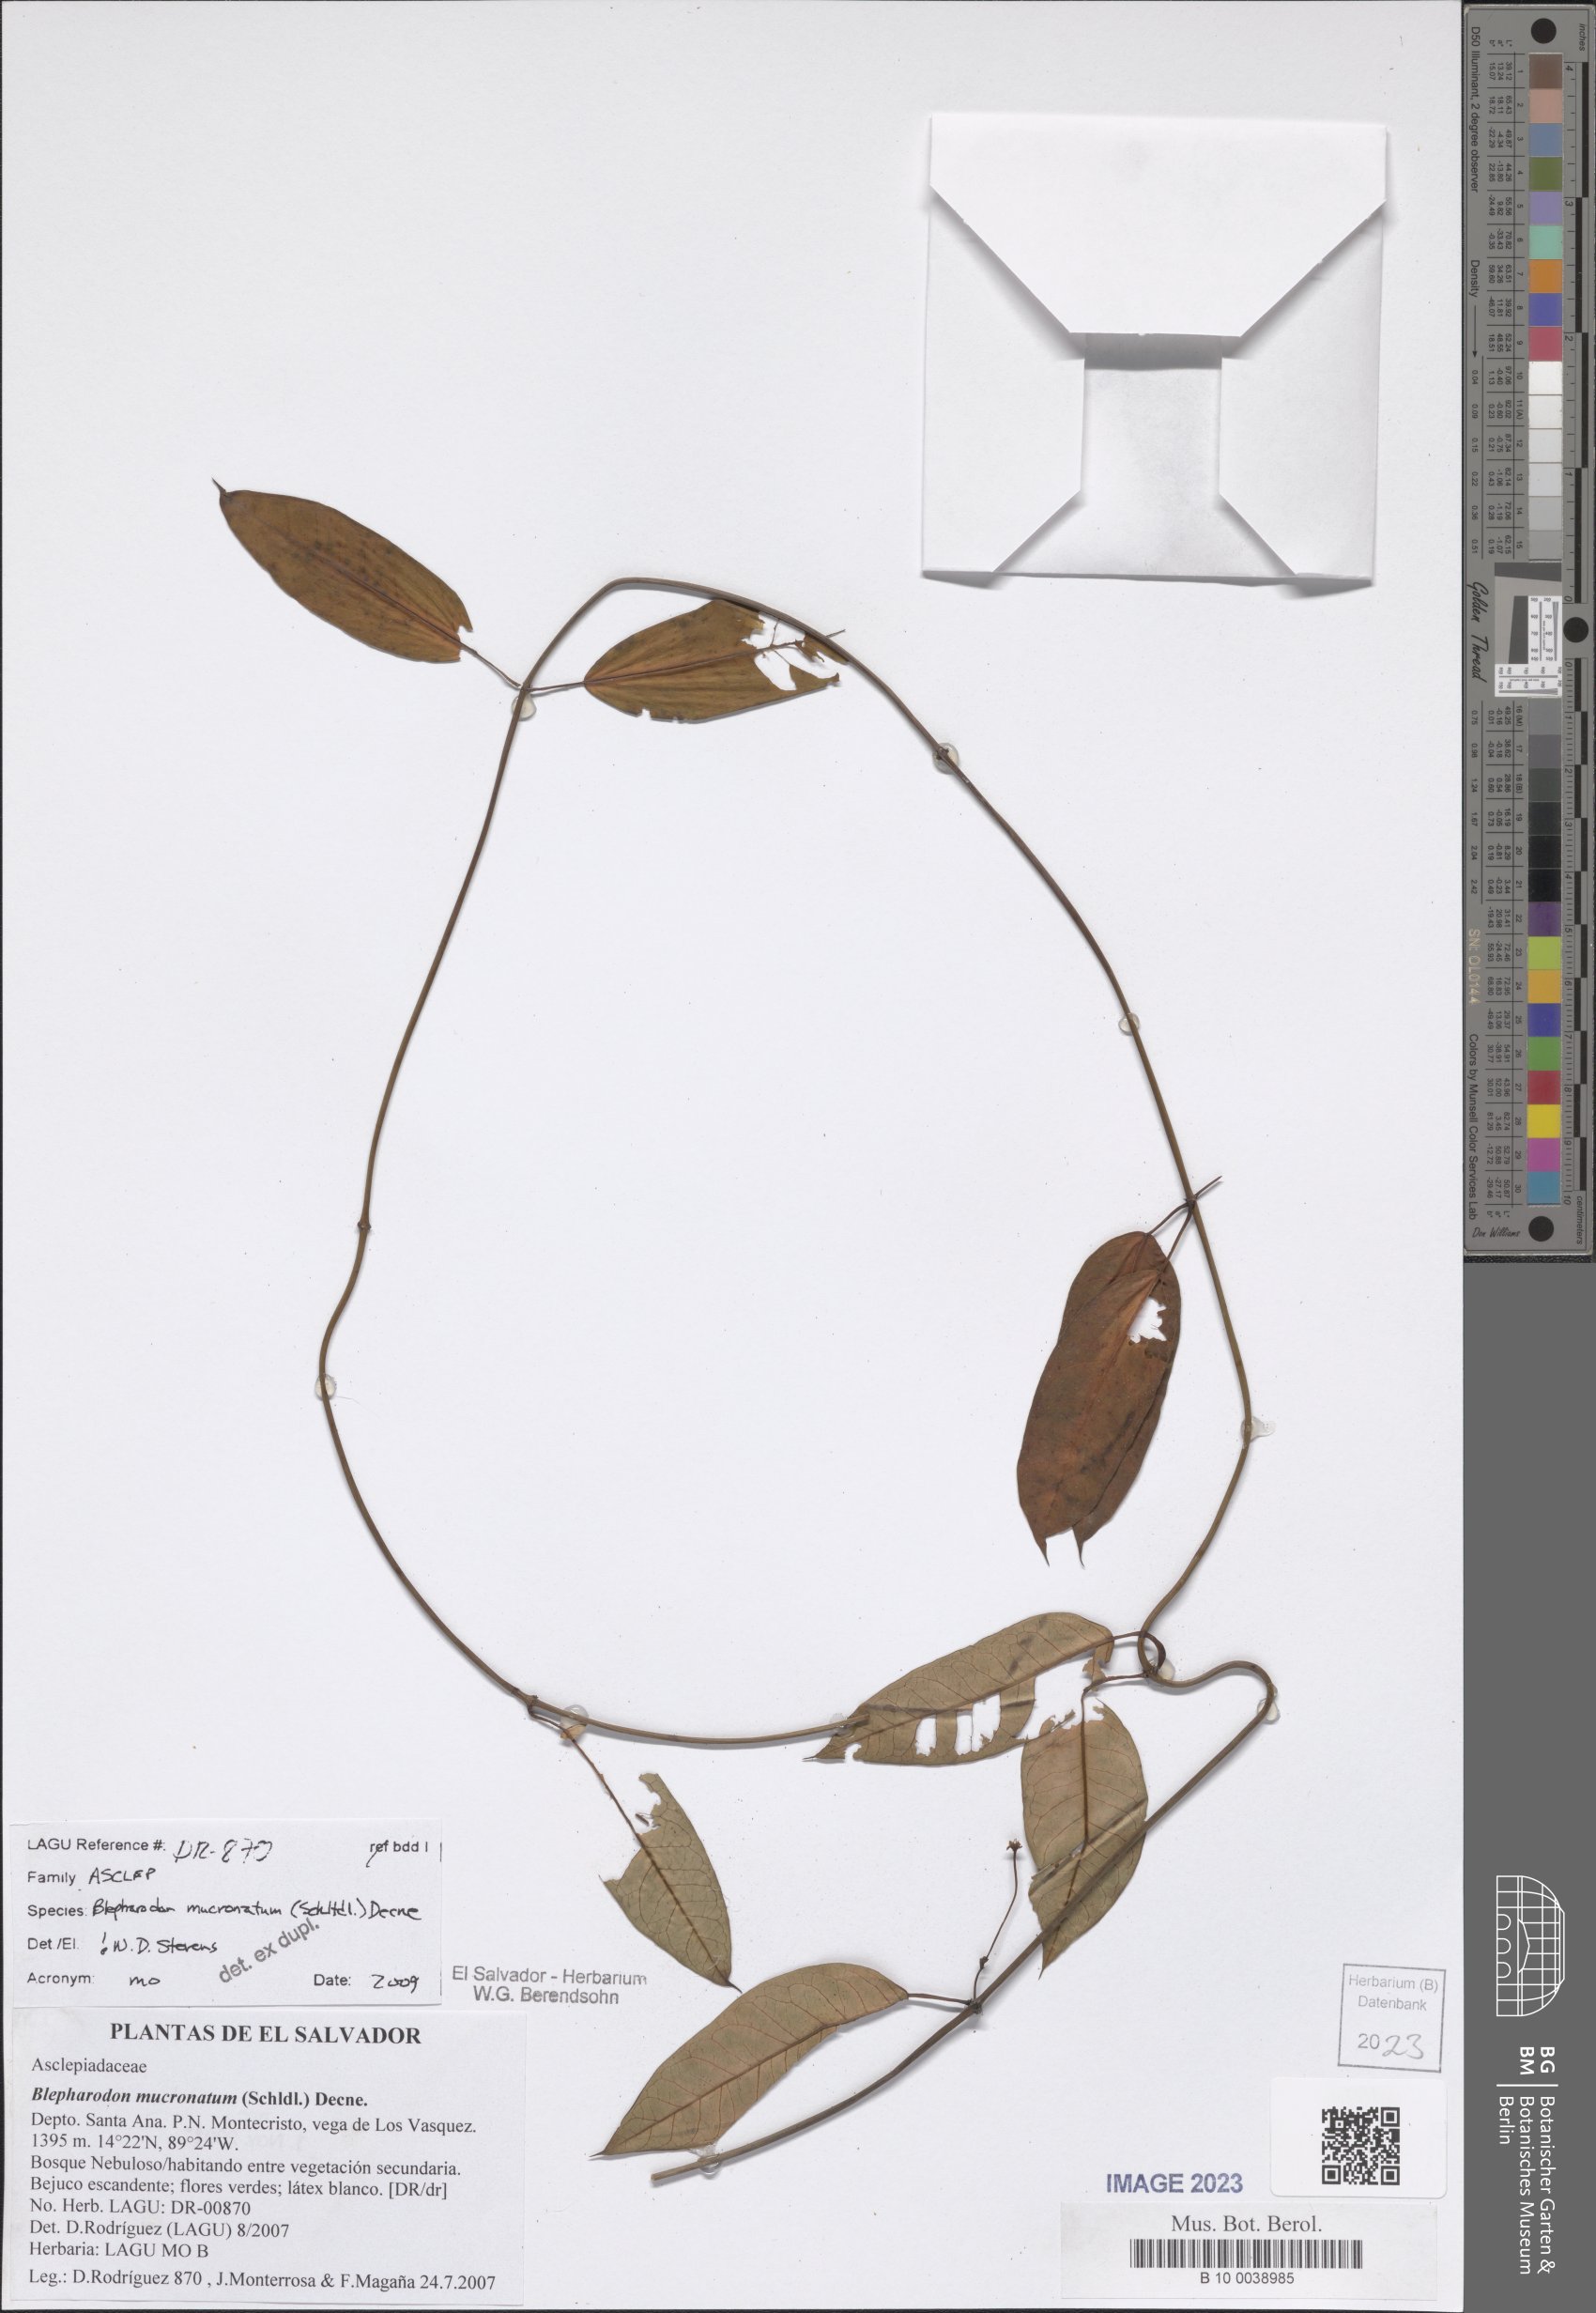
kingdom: Plantae
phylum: Tracheophyta
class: Magnoliopsida
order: Gentianales
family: Apocynaceae
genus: Vailia
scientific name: Vailia anomala
